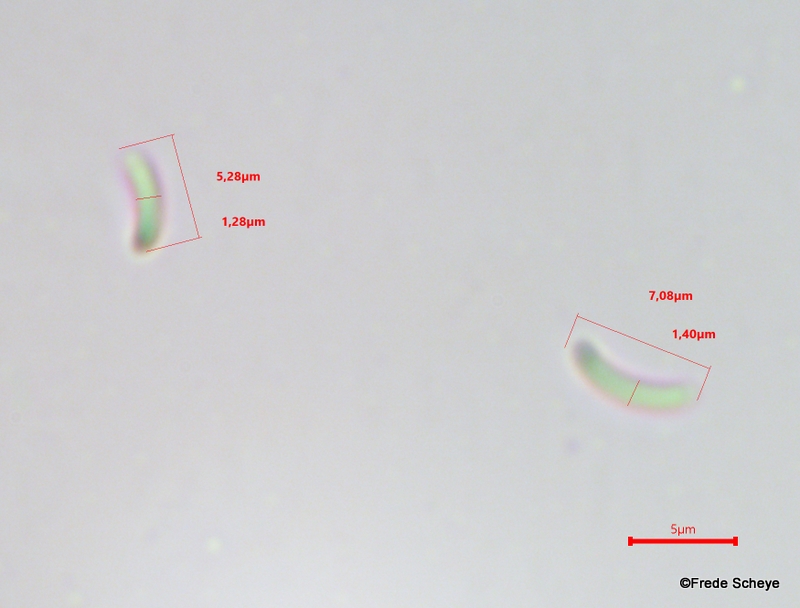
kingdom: Fungi
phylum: Ascomycota
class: Sordariomycetes
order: Xylariales
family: Diatrypaceae
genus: Diatrype
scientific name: Diatrype disciformis
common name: kant-kulskorpe
